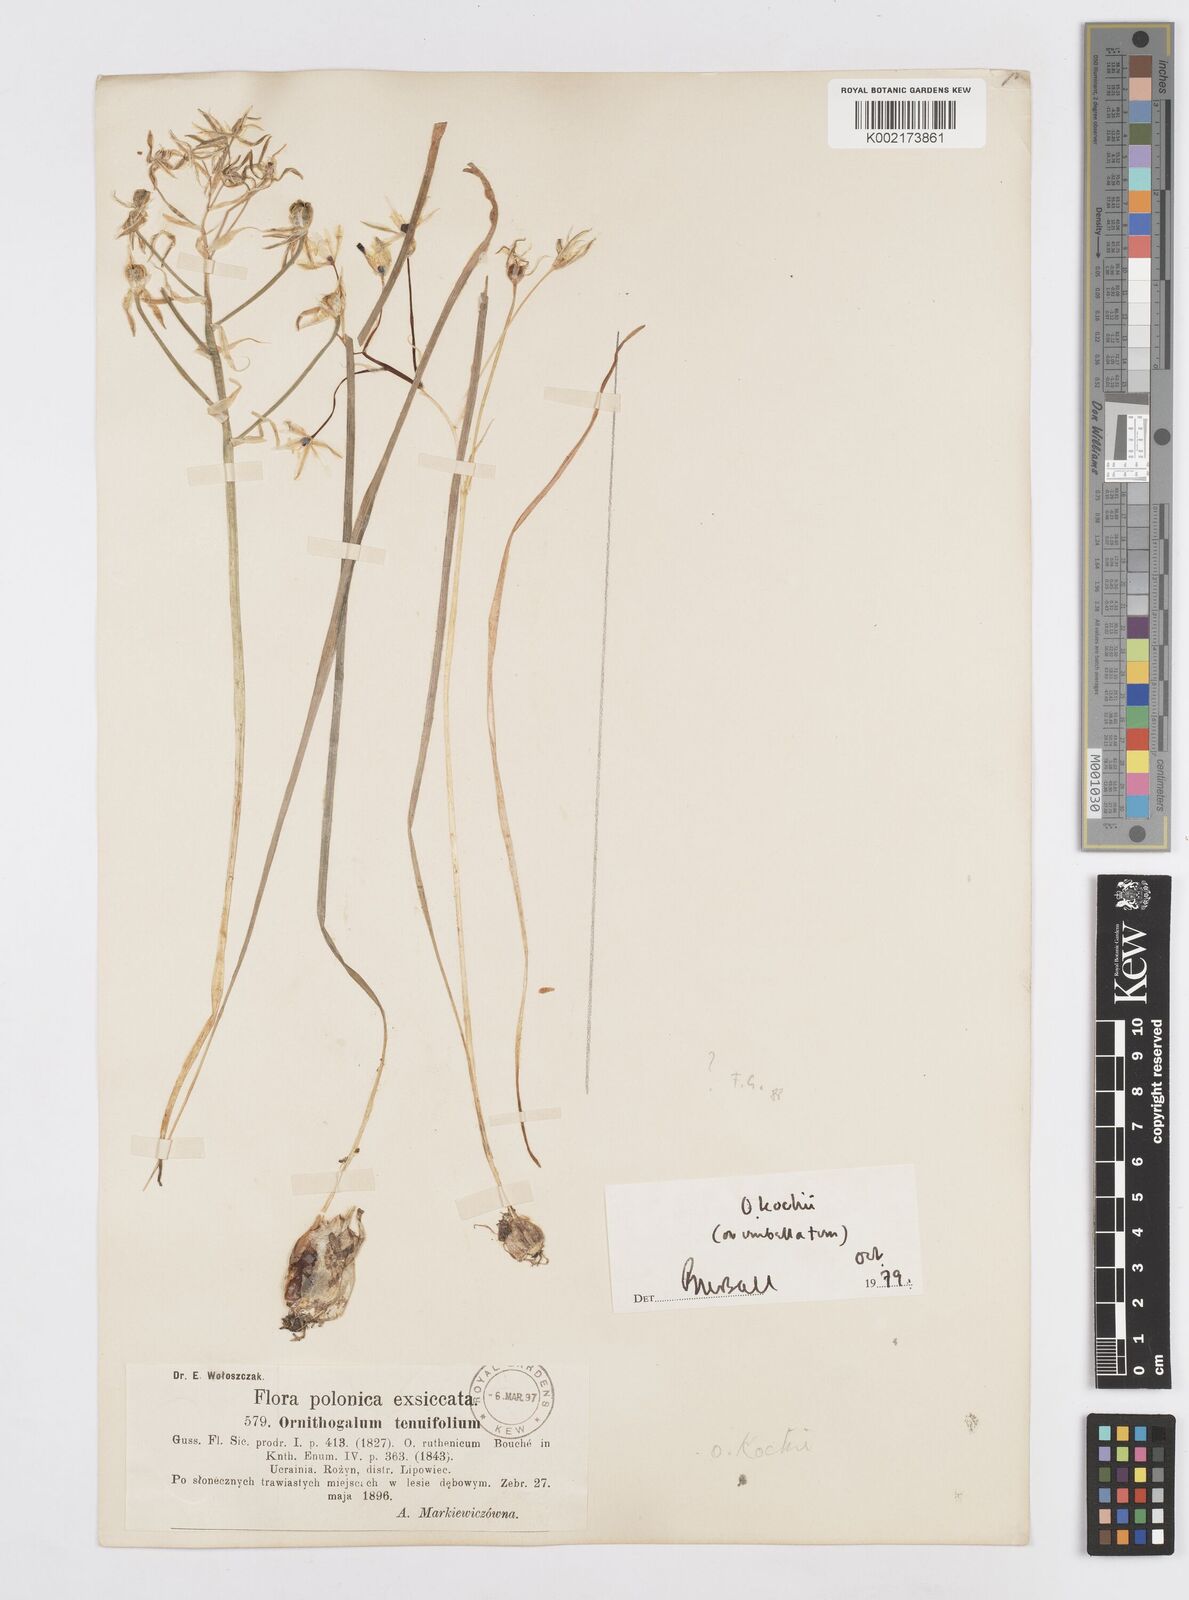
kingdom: Plantae
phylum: Tracheophyta
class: Liliopsida
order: Asparagales
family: Asparagaceae
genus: Ornithogalum
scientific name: Ornithogalum orthophyllum
